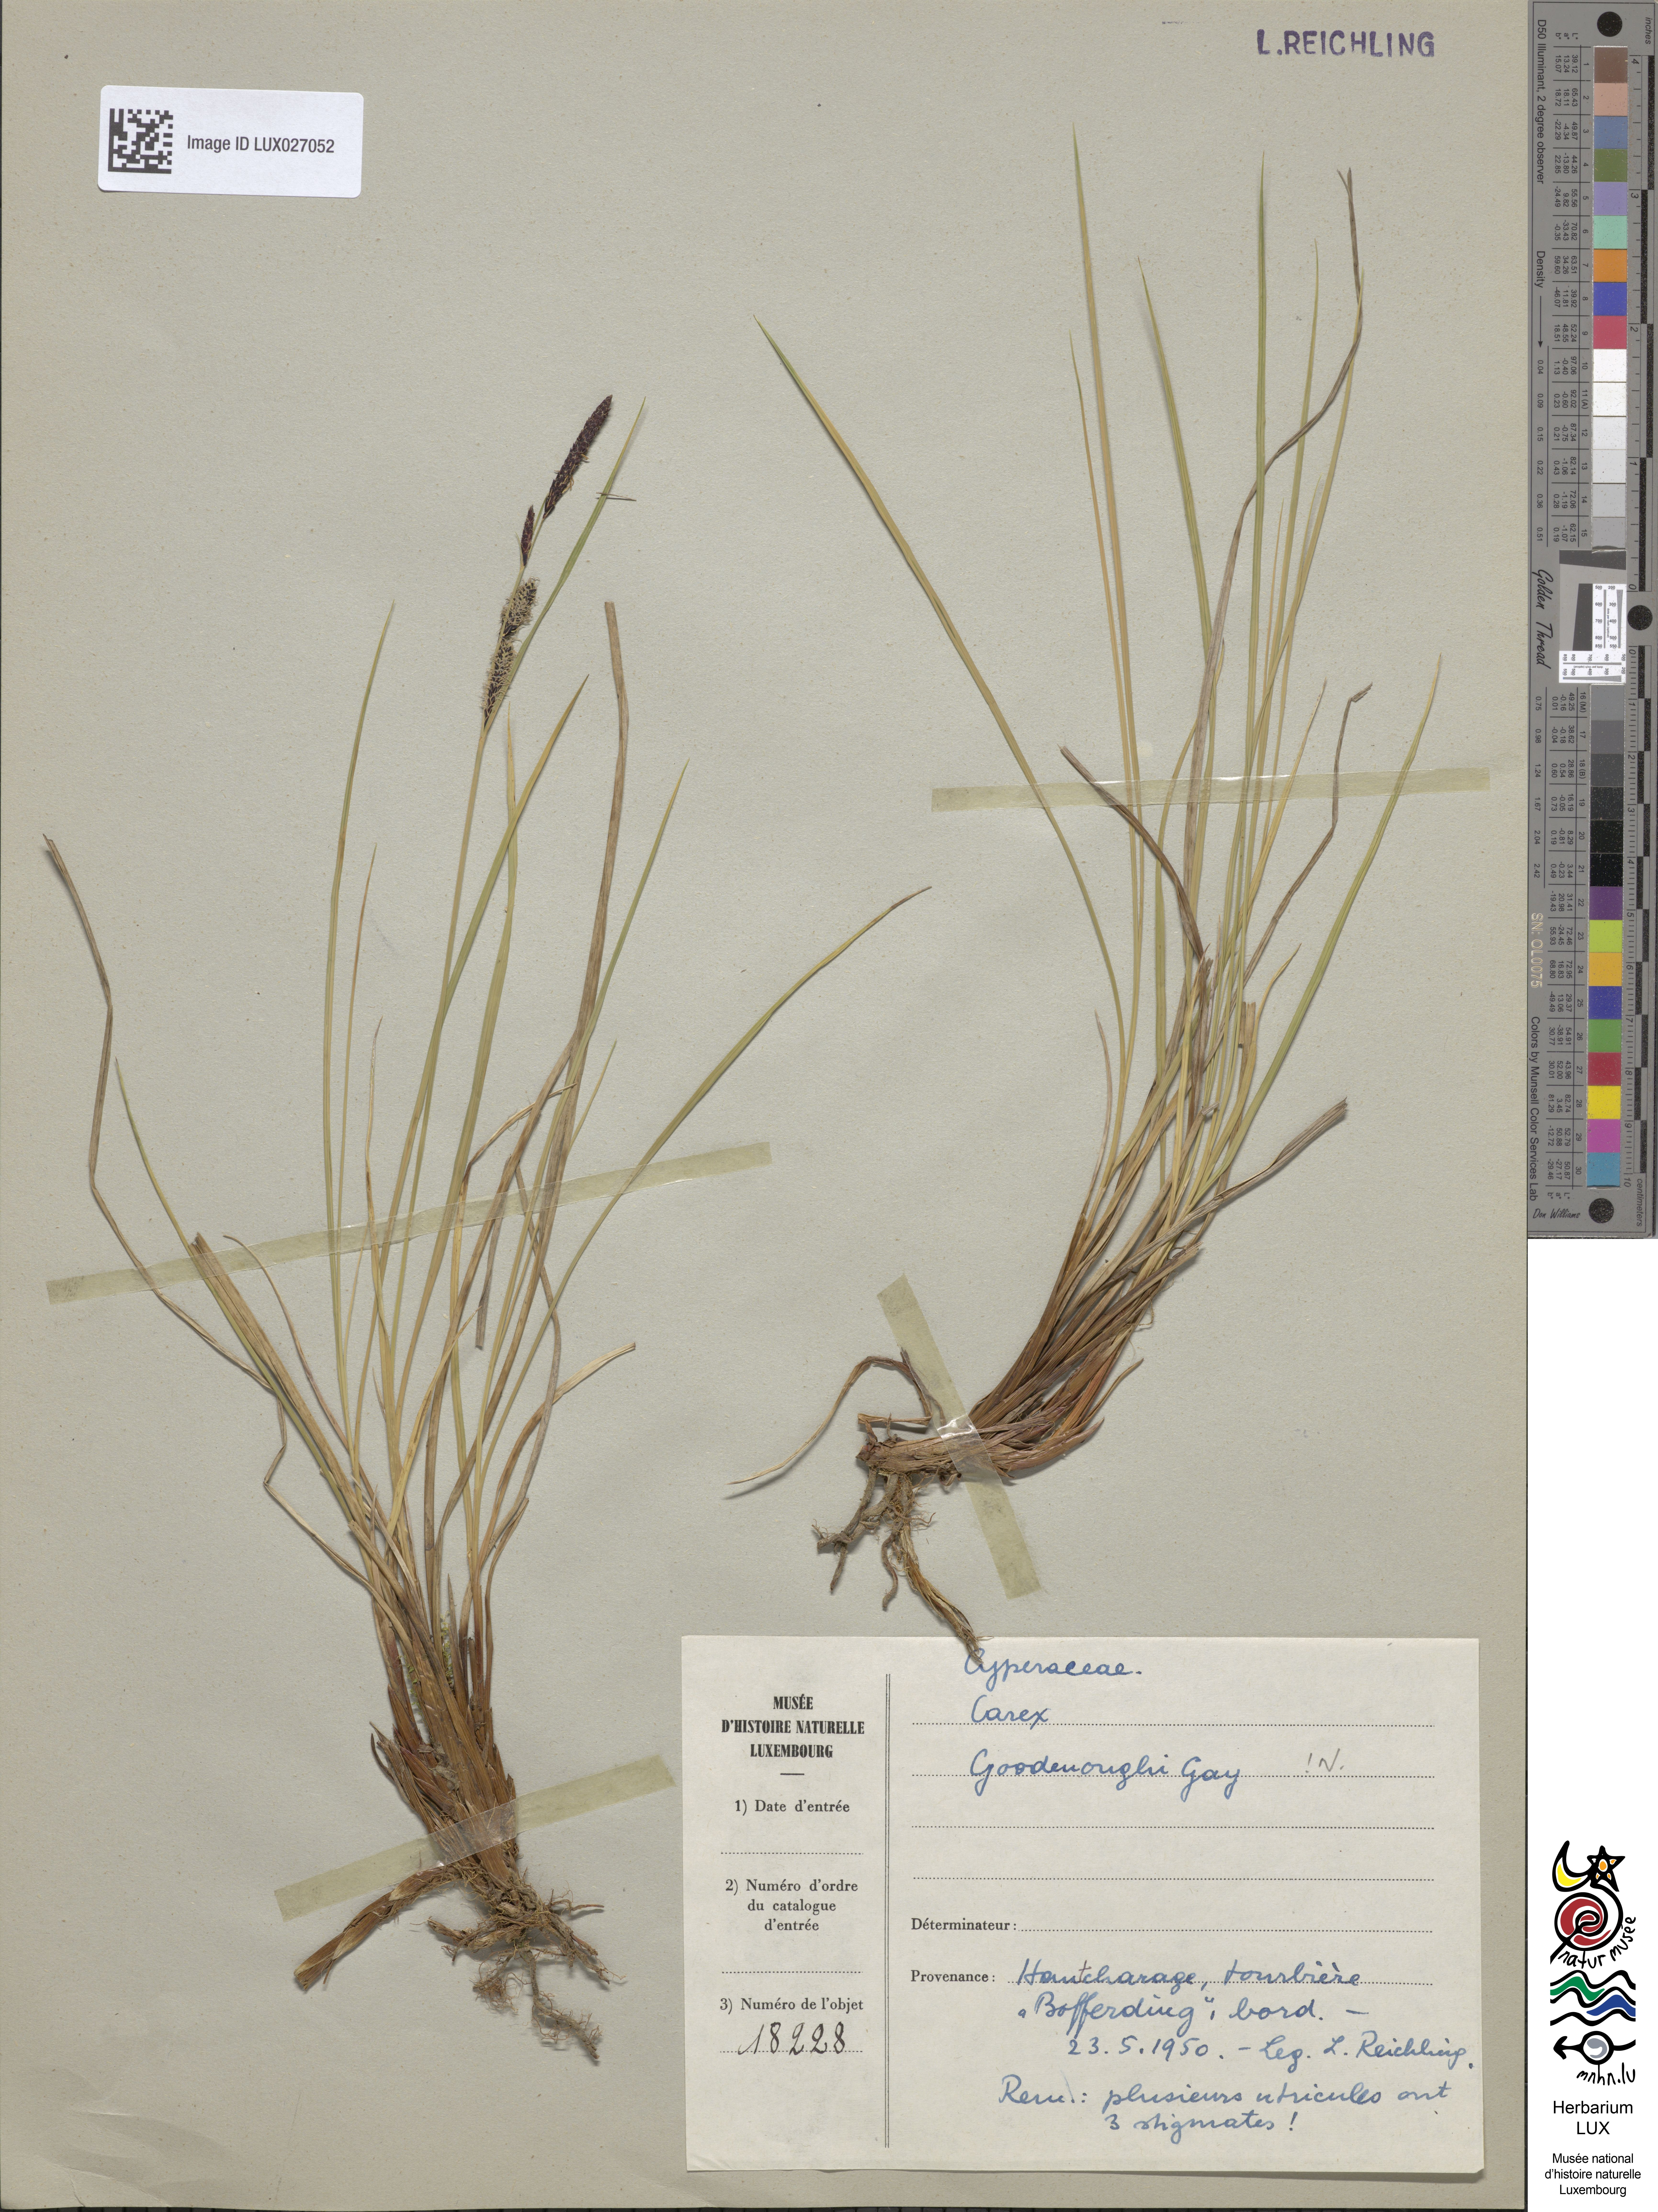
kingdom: Plantae
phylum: Tracheophyta
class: Liliopsida
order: Poales
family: Cyperaceae
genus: Carex
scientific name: Carex nigra
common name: Common sedge
